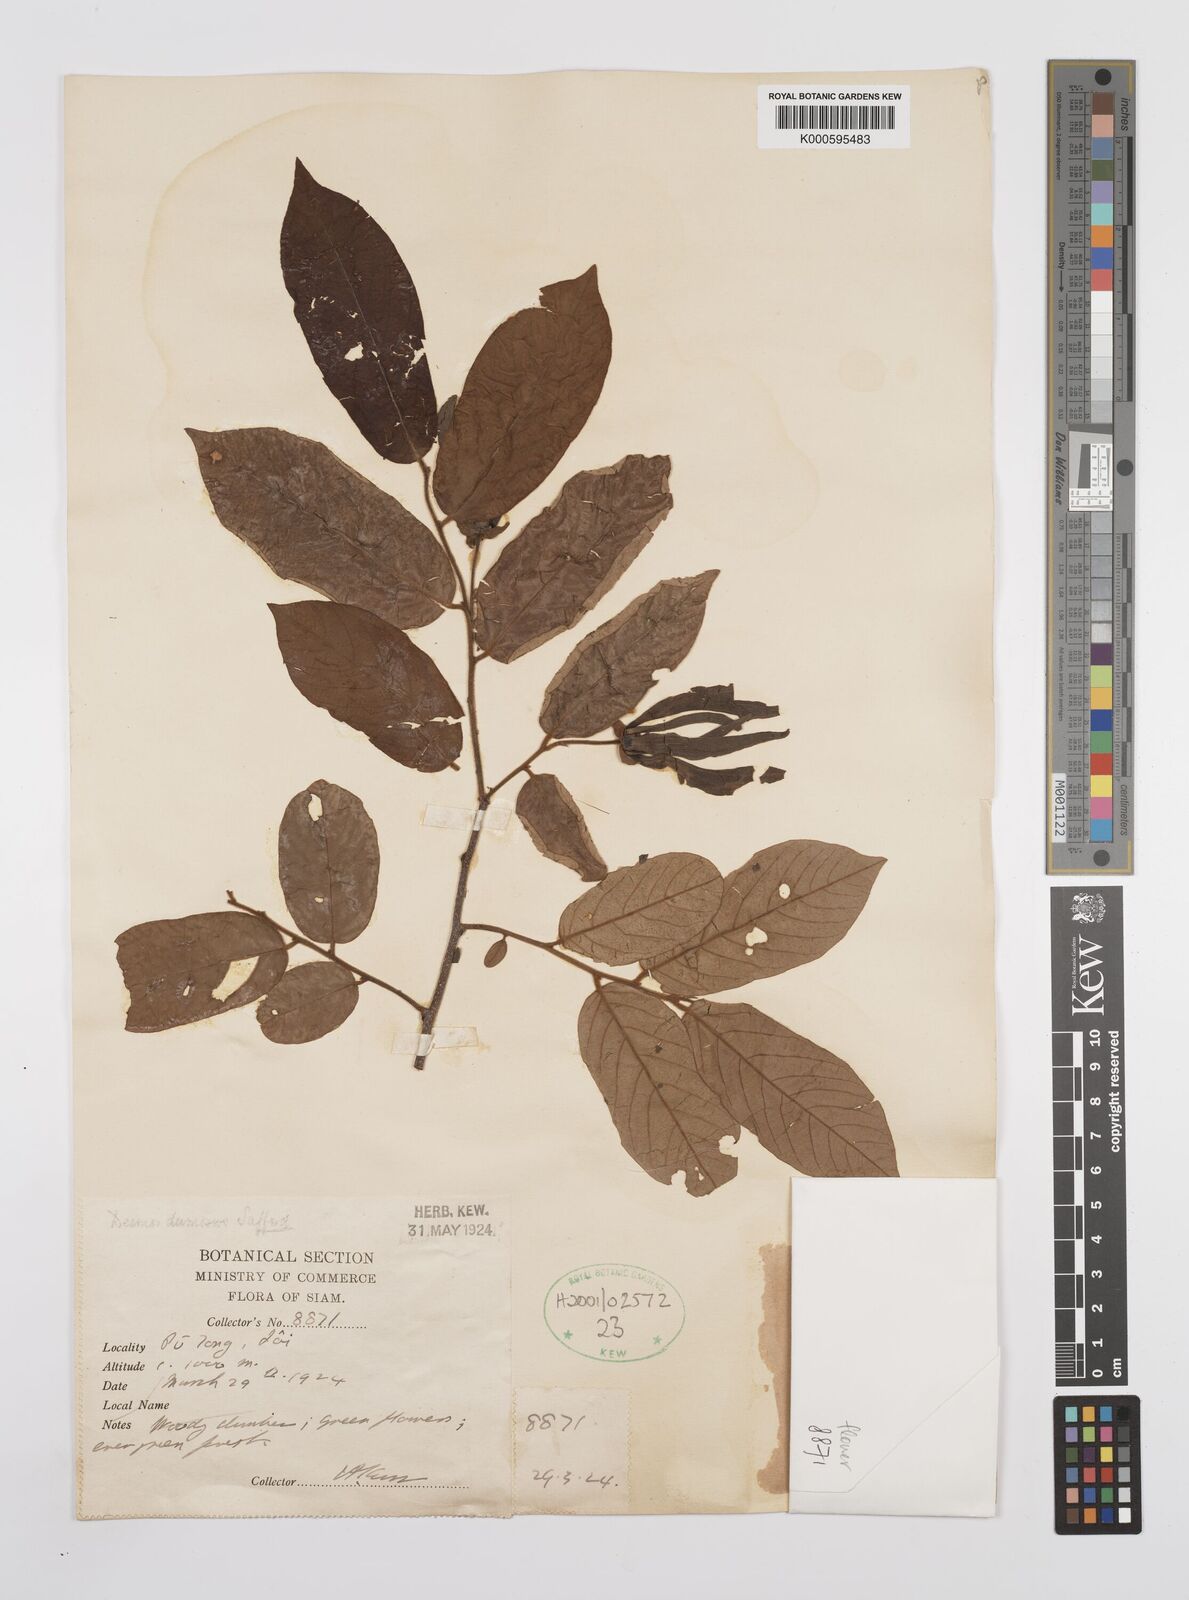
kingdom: Plantae
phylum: Tracheophyta
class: Magnoliopsida
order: Magnoliales
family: Annonaceae
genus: Desmos
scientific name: Desmos dumosus
